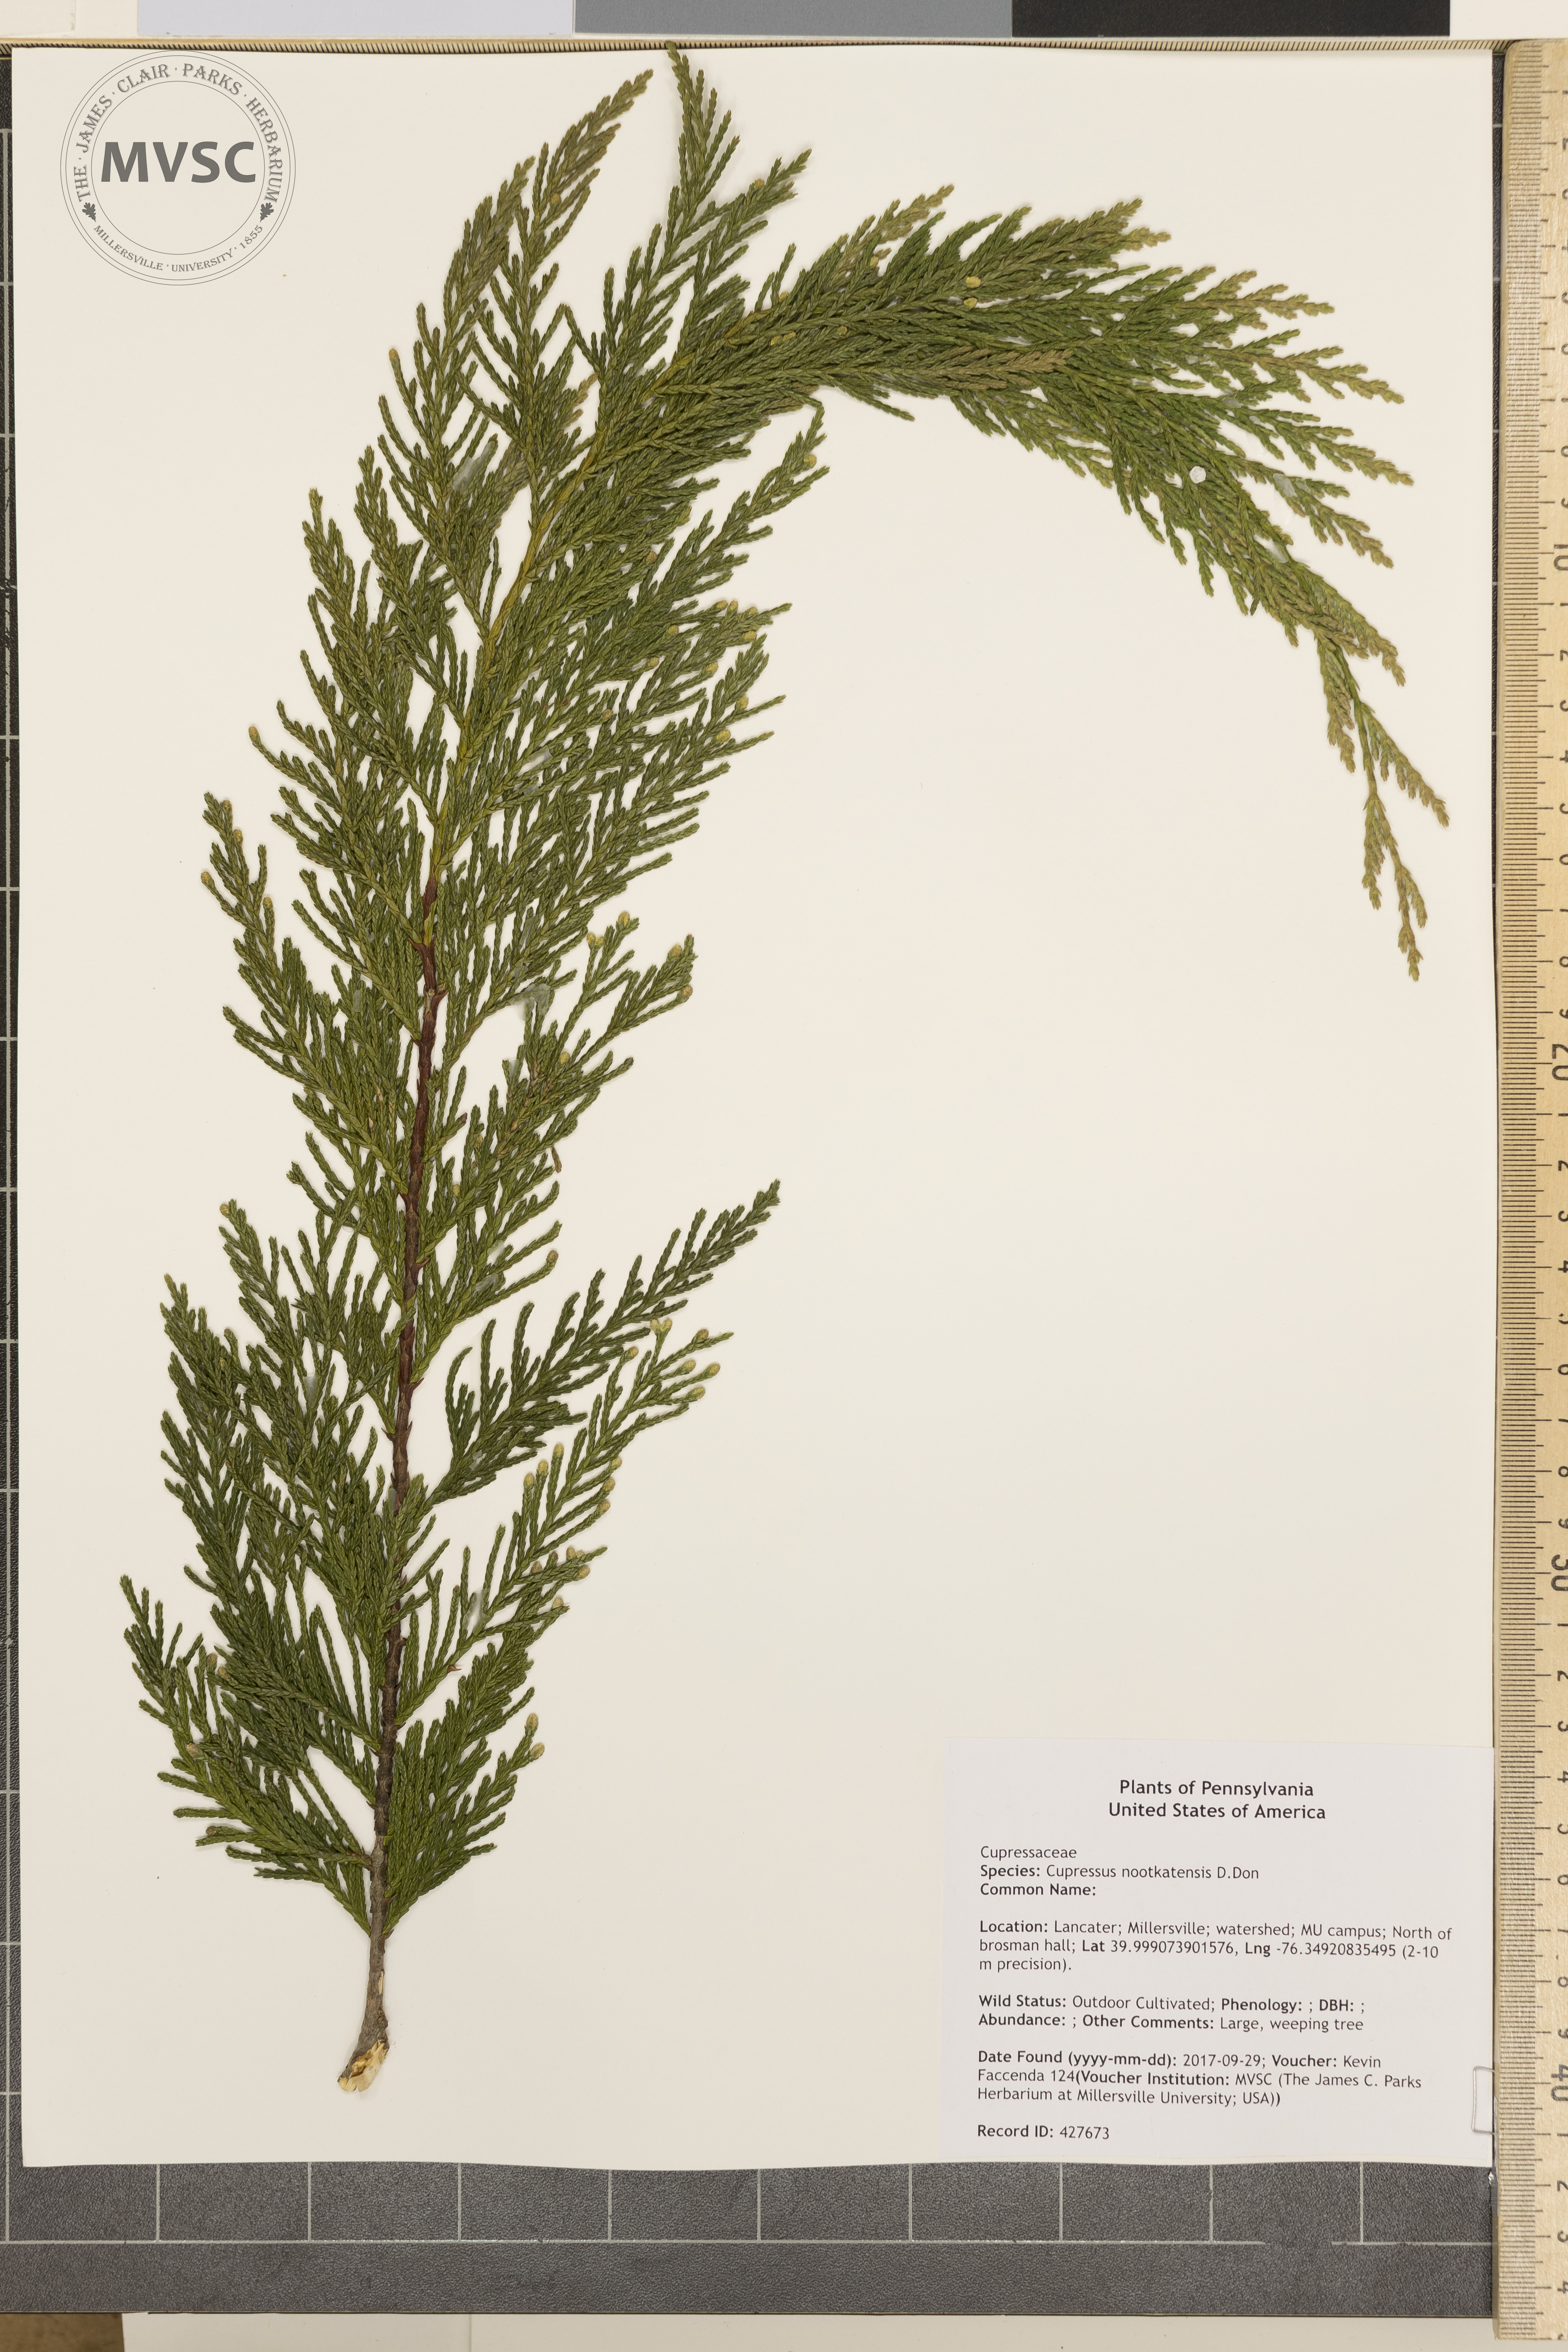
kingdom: Plantae
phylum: Tracheophyta
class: Pinopsida
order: Pinales
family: Cupressaceae
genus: Xanthocyparis
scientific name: Xanthocyparis nootkatensis
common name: Nootka cypress
